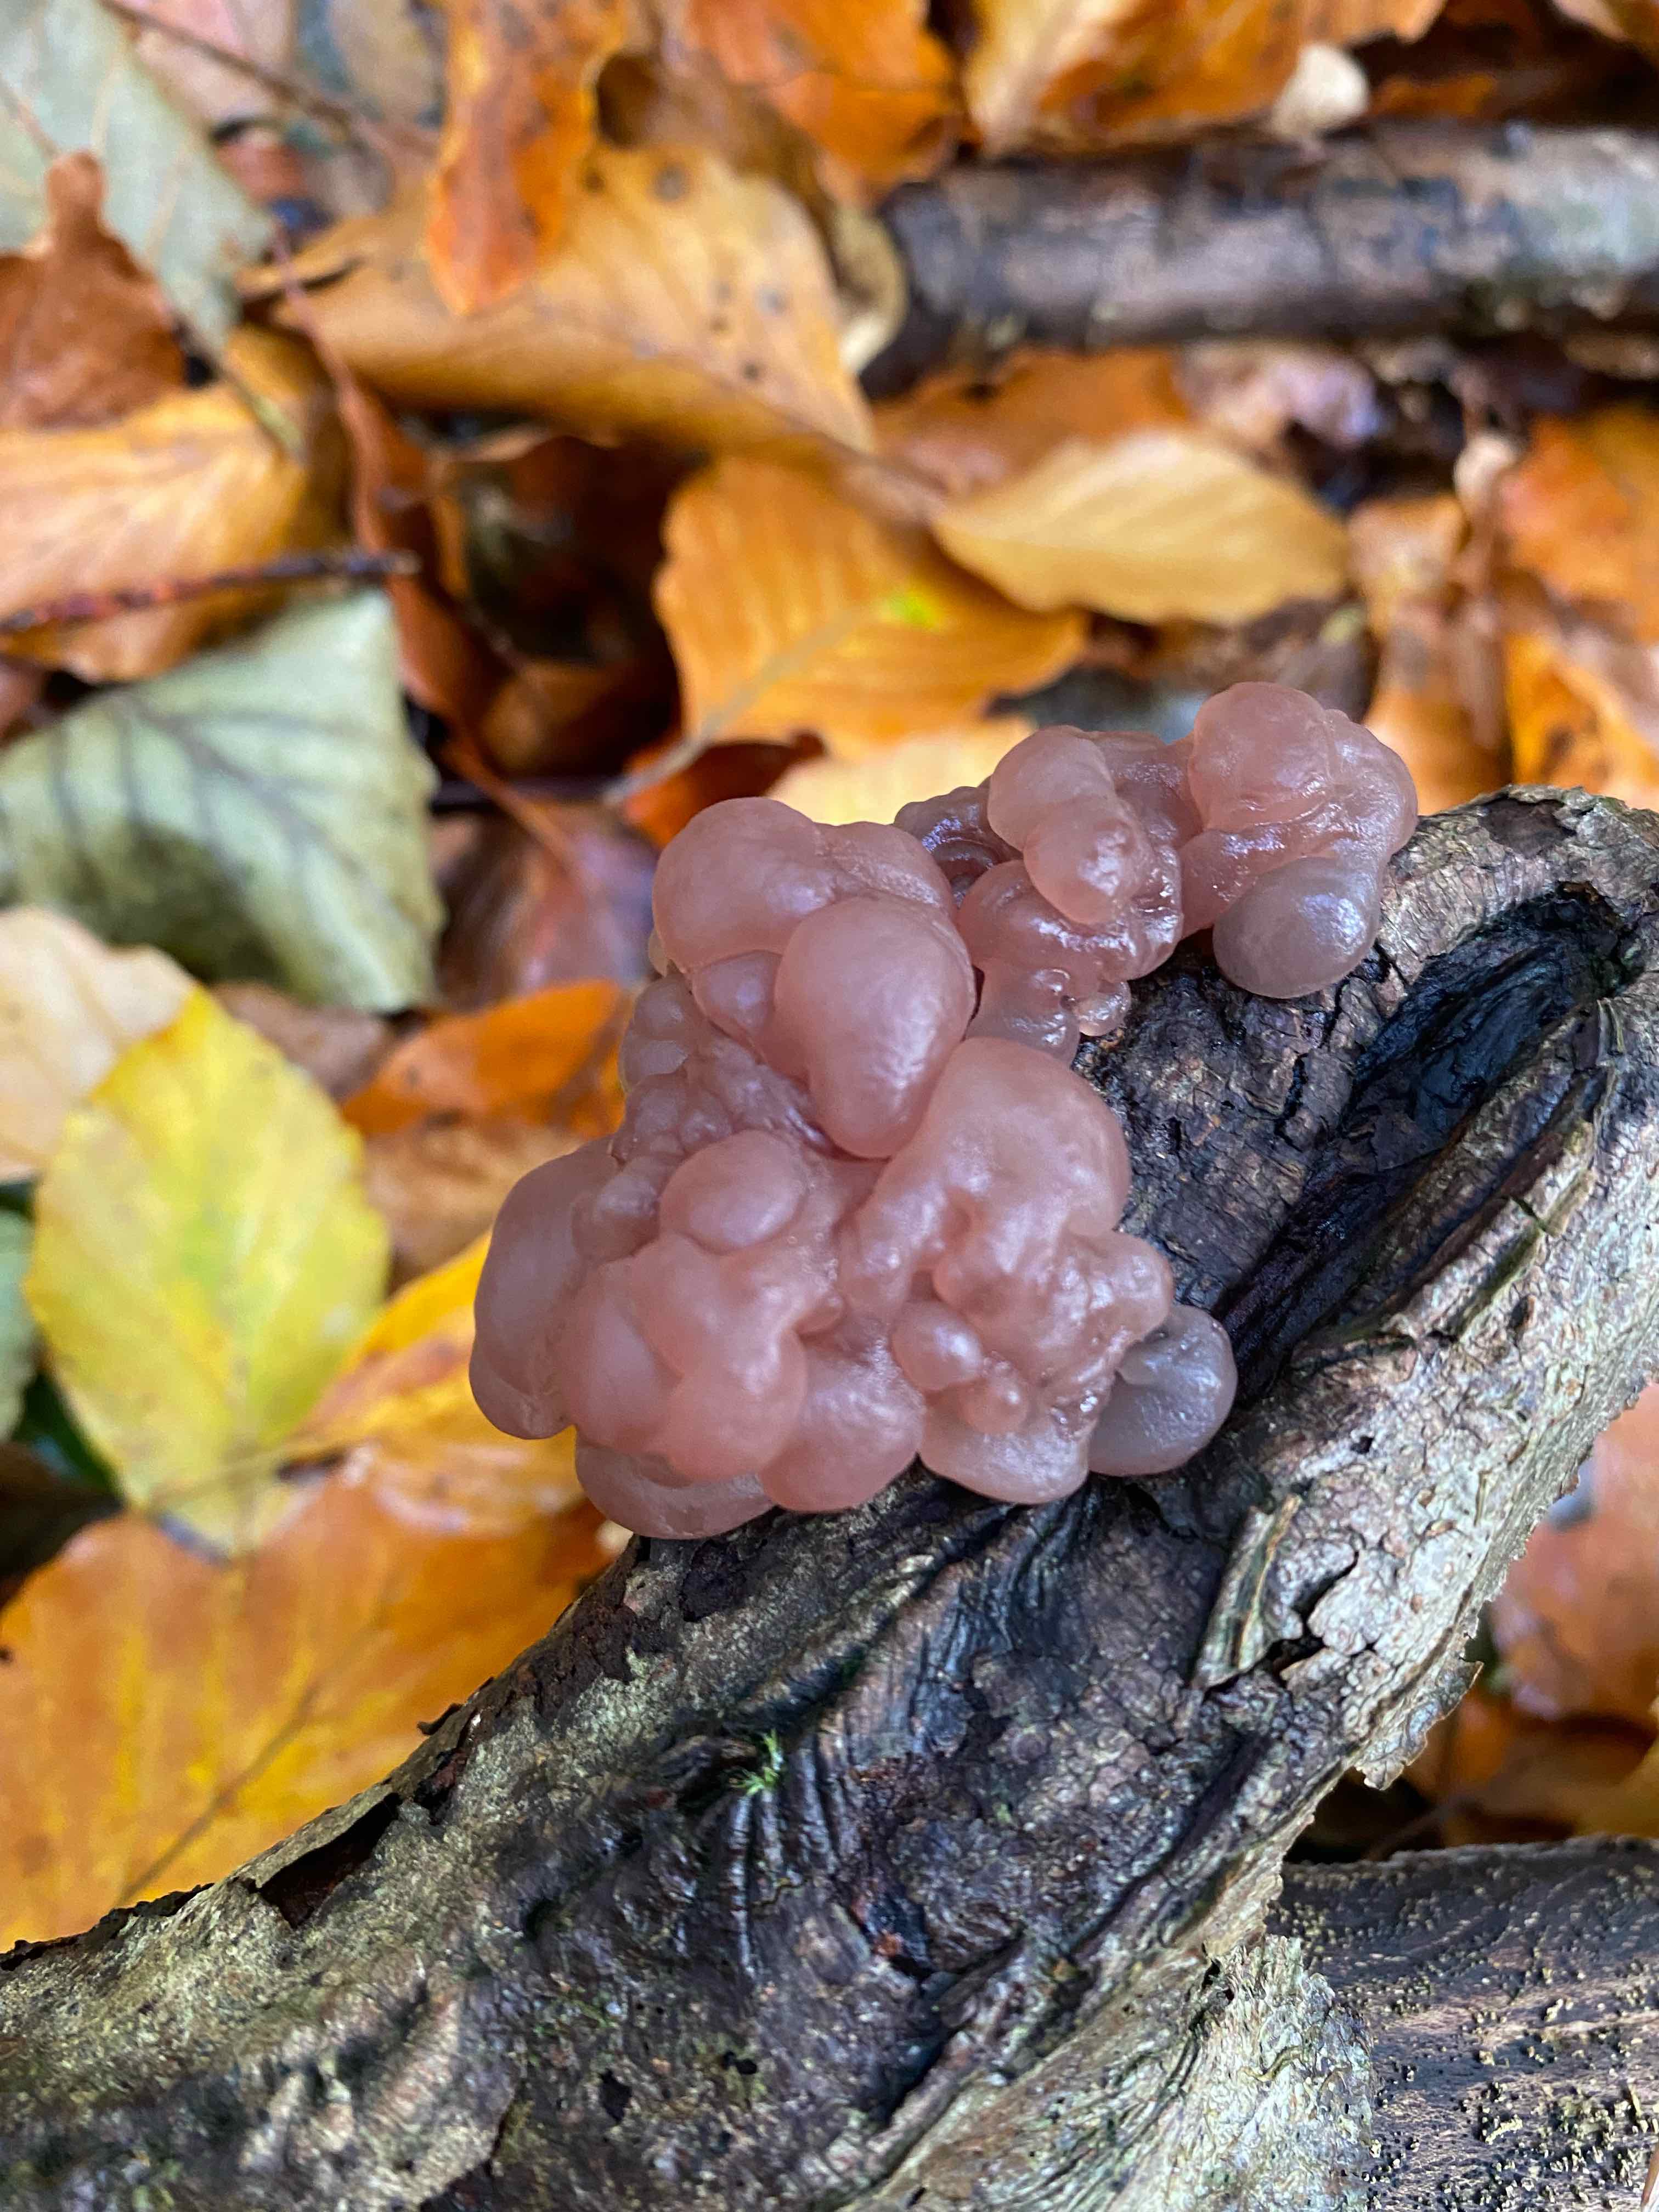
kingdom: Fungi
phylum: Ascomycota
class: Leotiomycetes
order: Helotiales
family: Gelatinodiscaceae
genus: Ascotremella
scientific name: Ascotremella faginea
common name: hjerne-bævreskive
